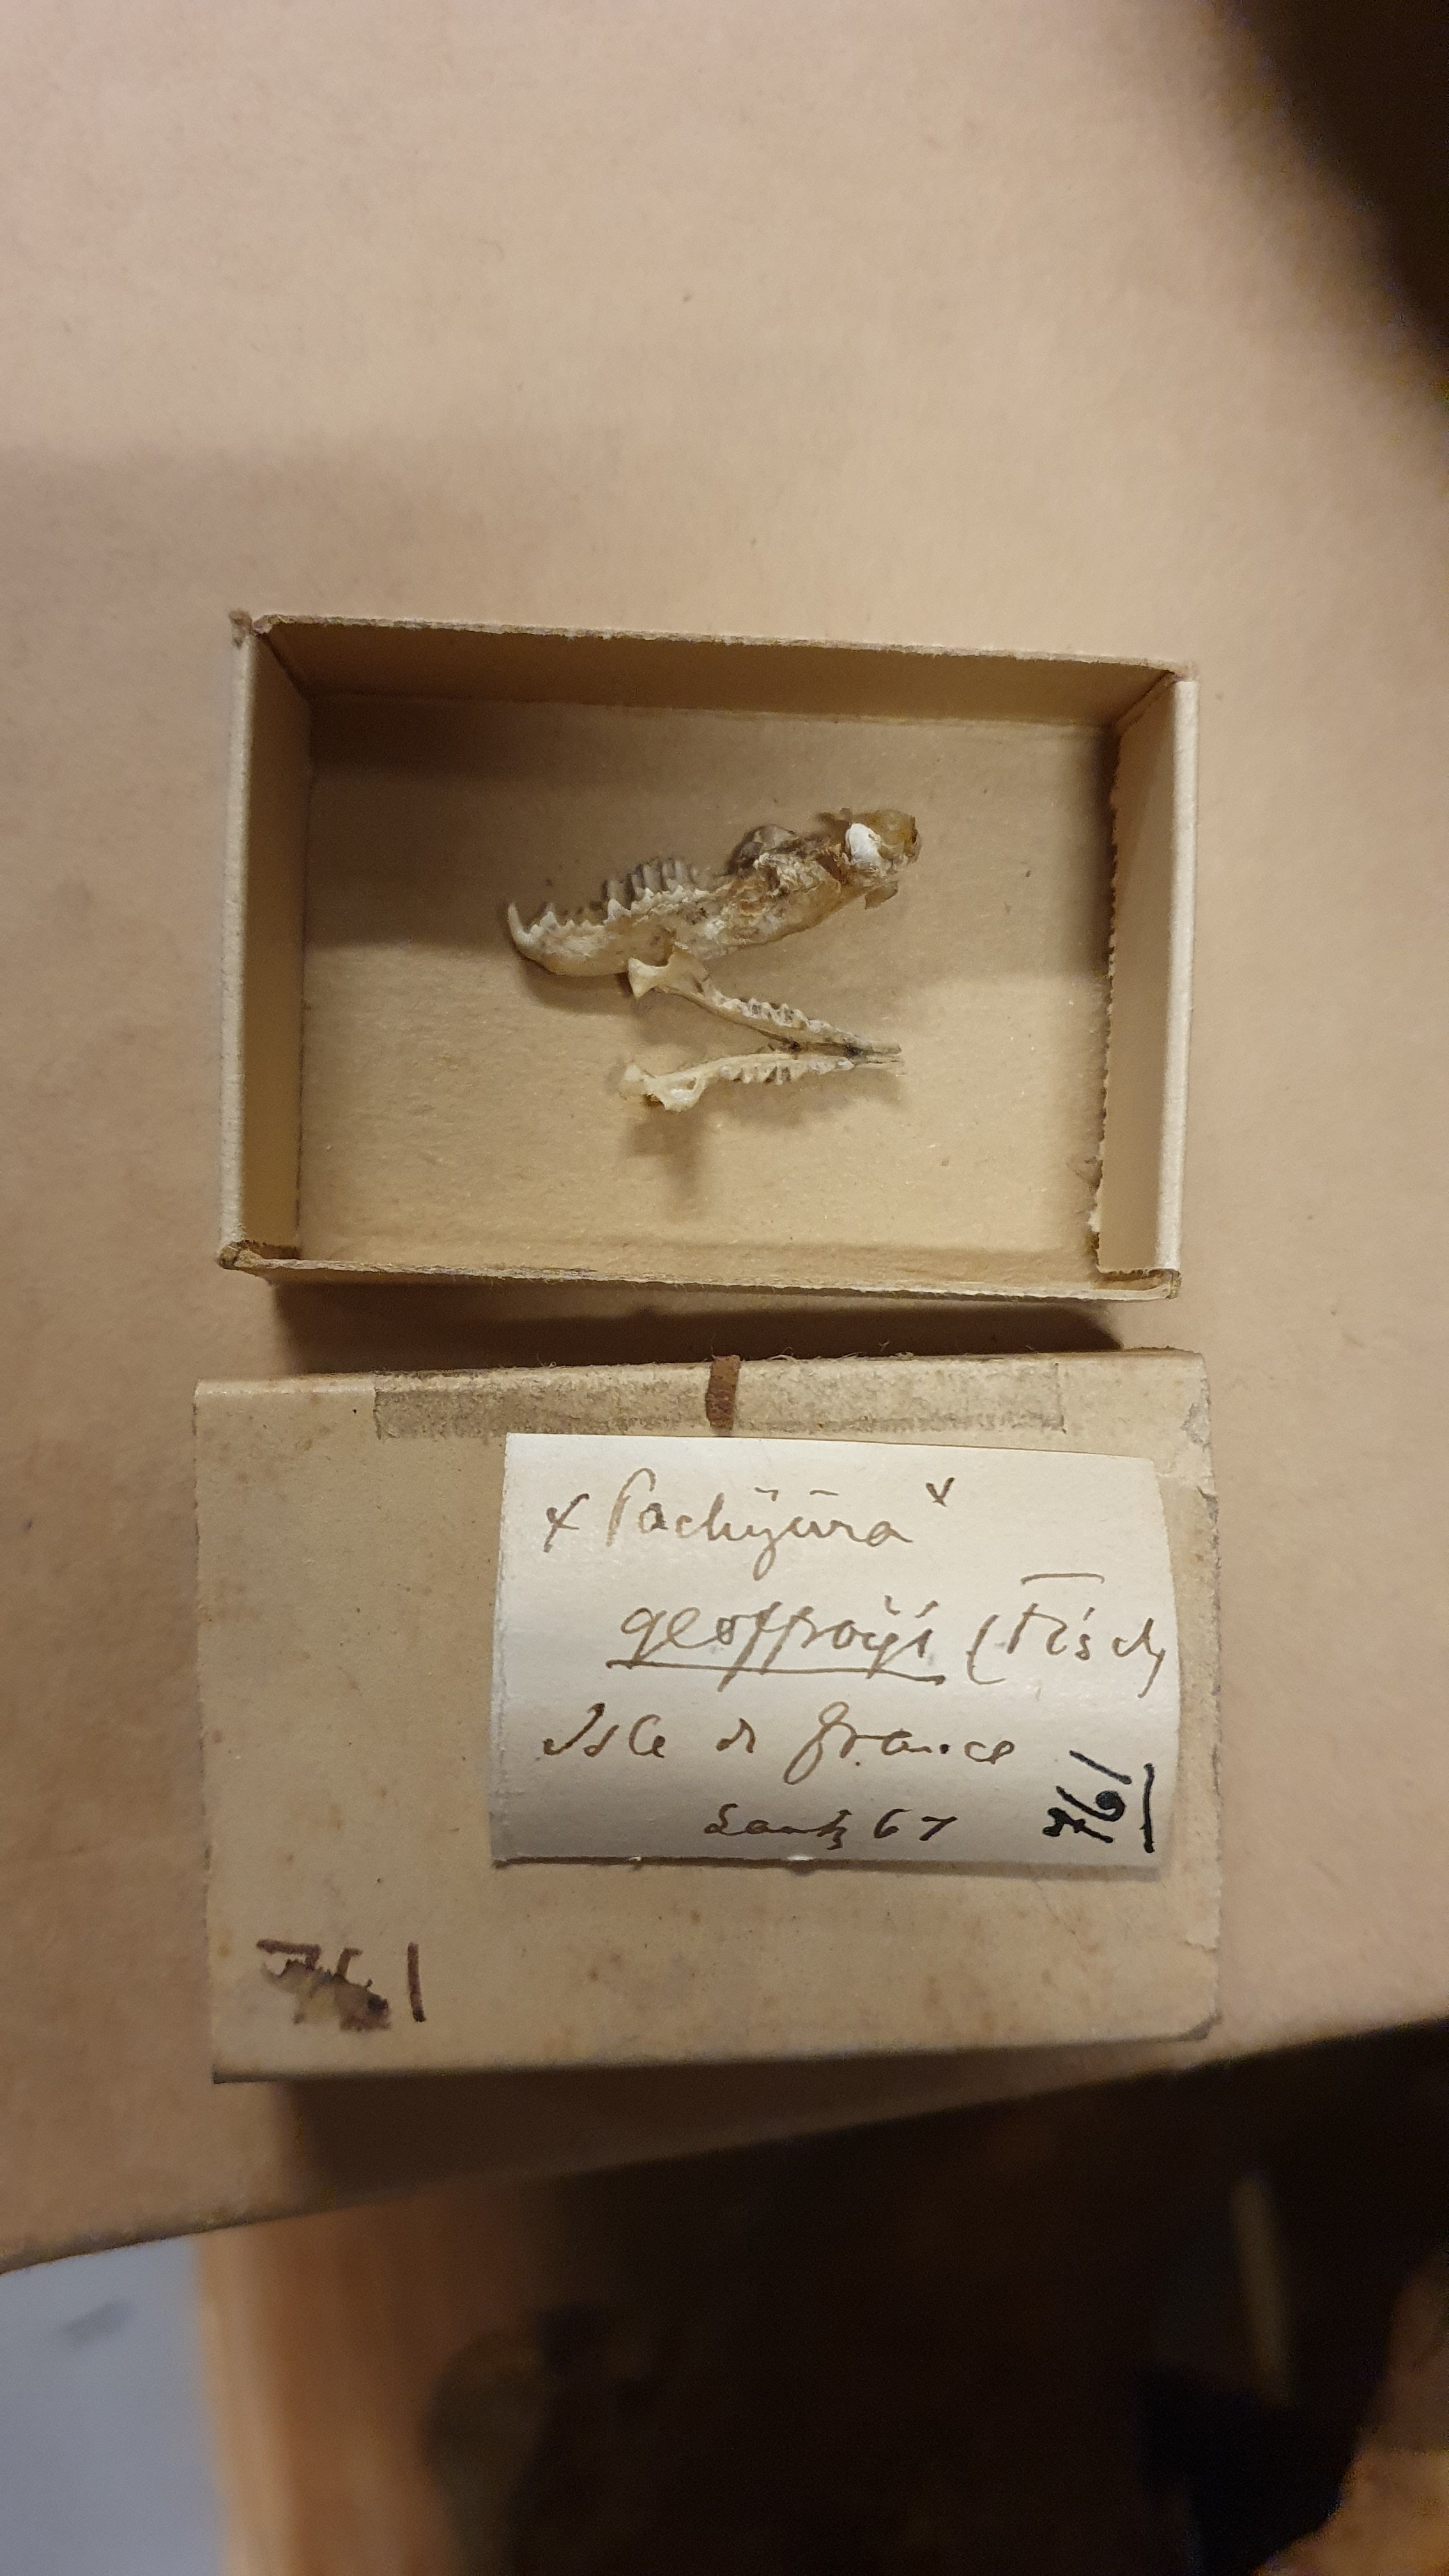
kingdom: Animalia
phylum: Chordata
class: Mammalia
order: Soricomorpha
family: Soricidae
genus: Suncus
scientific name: Suncus murinus
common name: Asian house shrew
